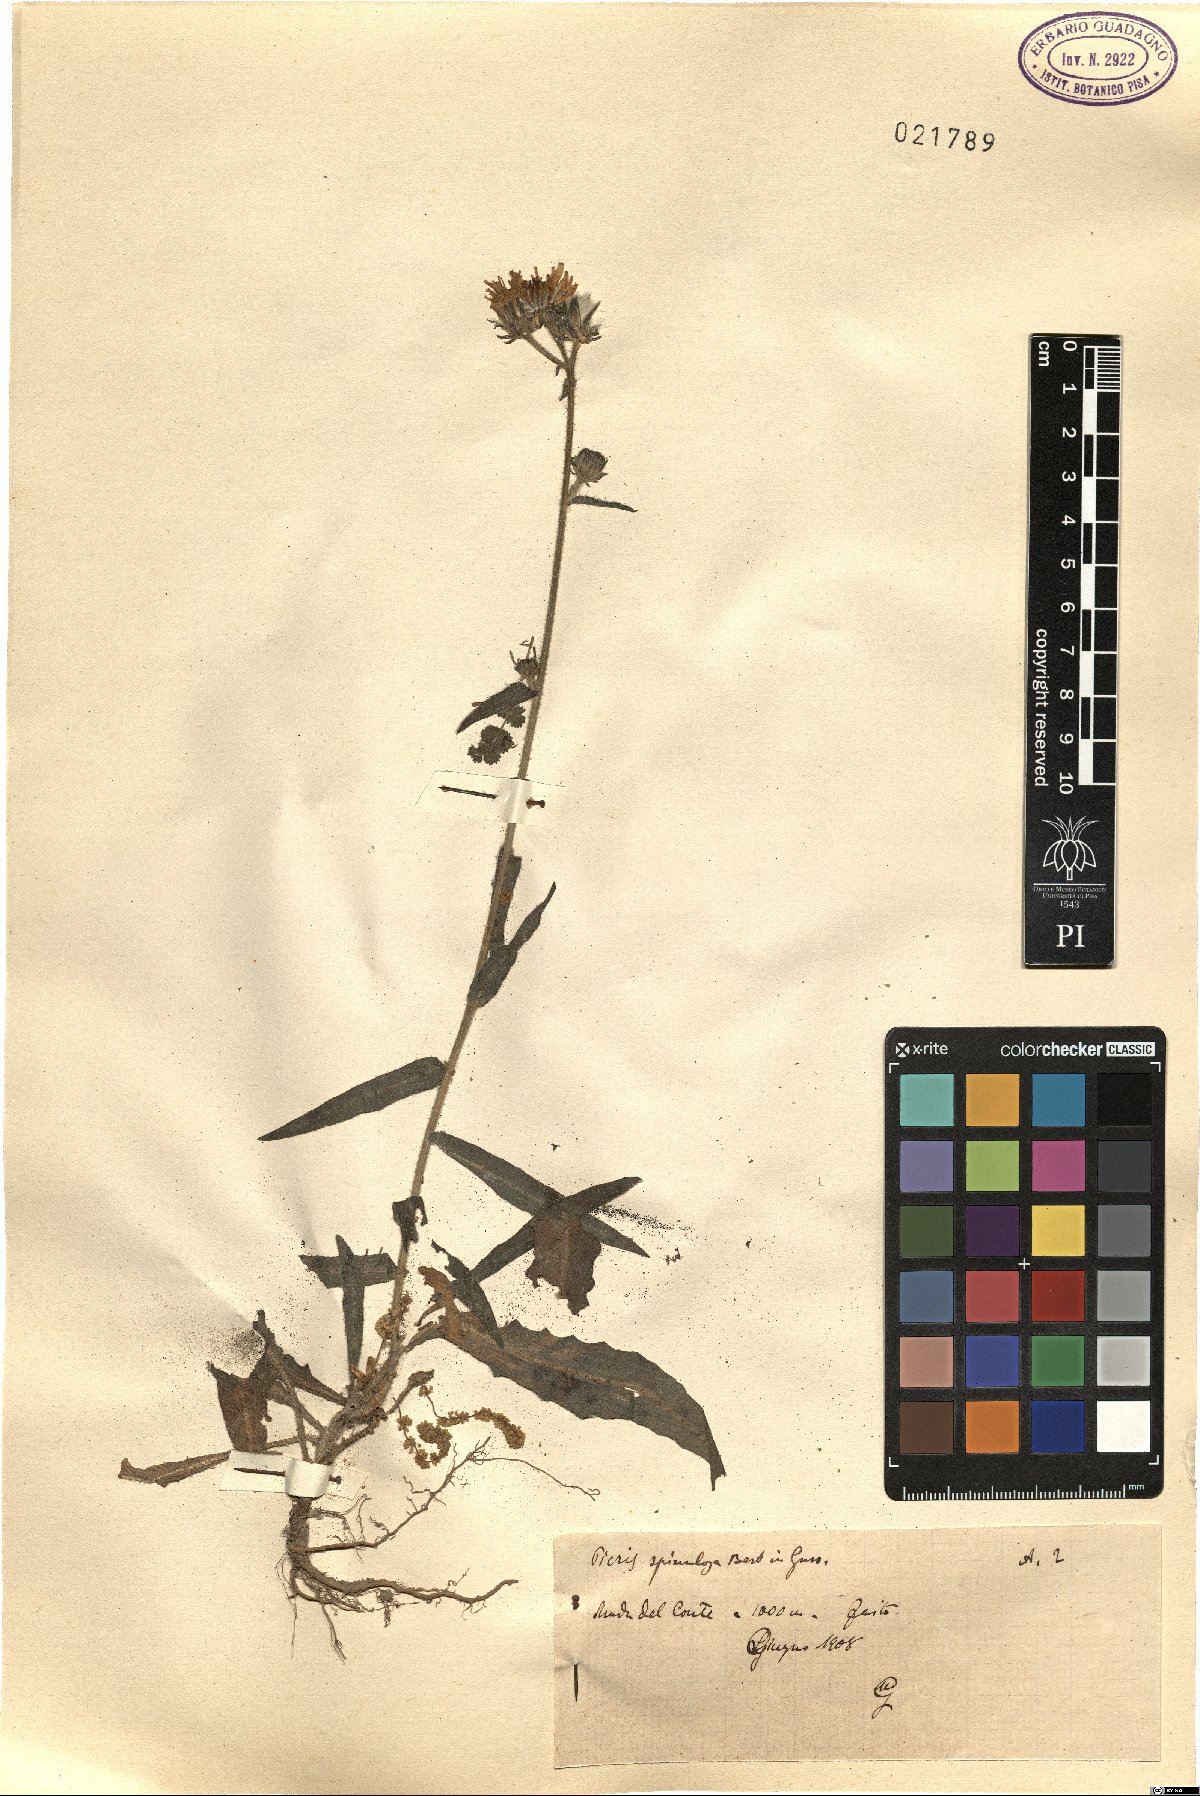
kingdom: Plantae
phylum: Tracheophyta
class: Magnoliopsida
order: Asterales
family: Asteraceae
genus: Picris
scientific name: Picris hieracioides
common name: Hawkweed oxtongue
